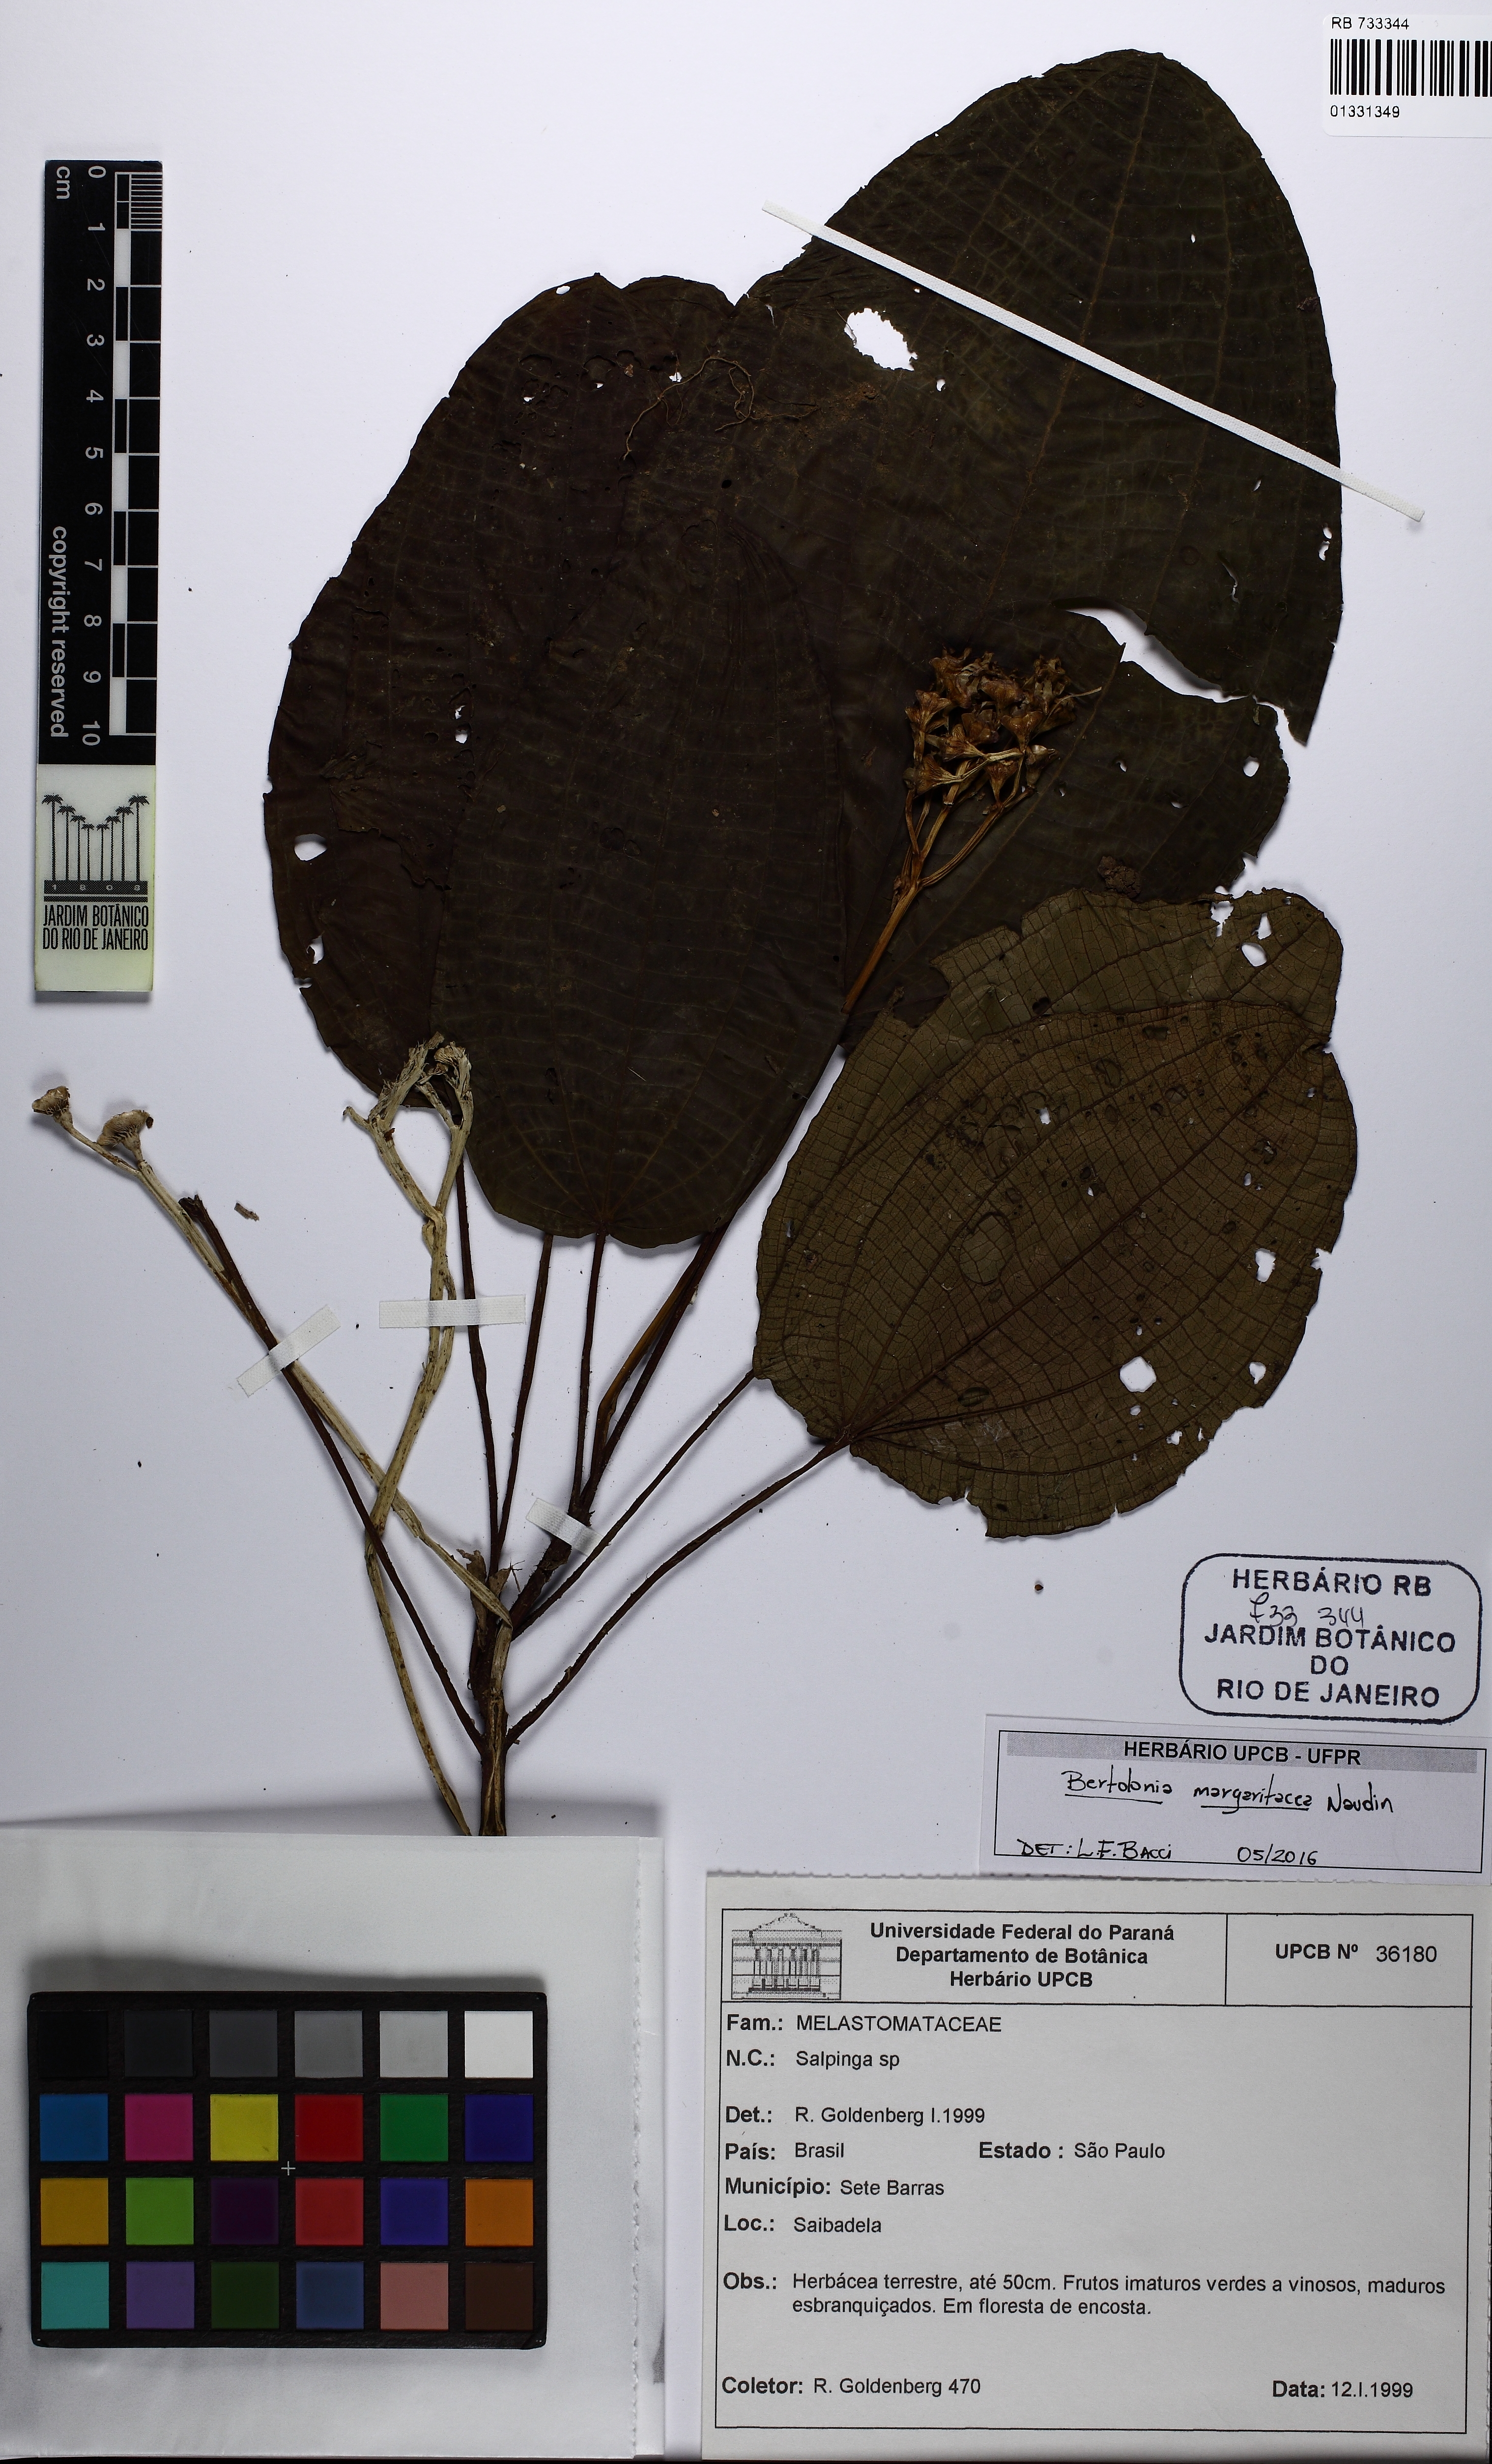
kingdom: Plantae
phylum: Tracheophyta
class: Magnoliopsida
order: Myrtales
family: Melastomataceae
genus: Salpinga
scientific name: Salpinga margaritacea
